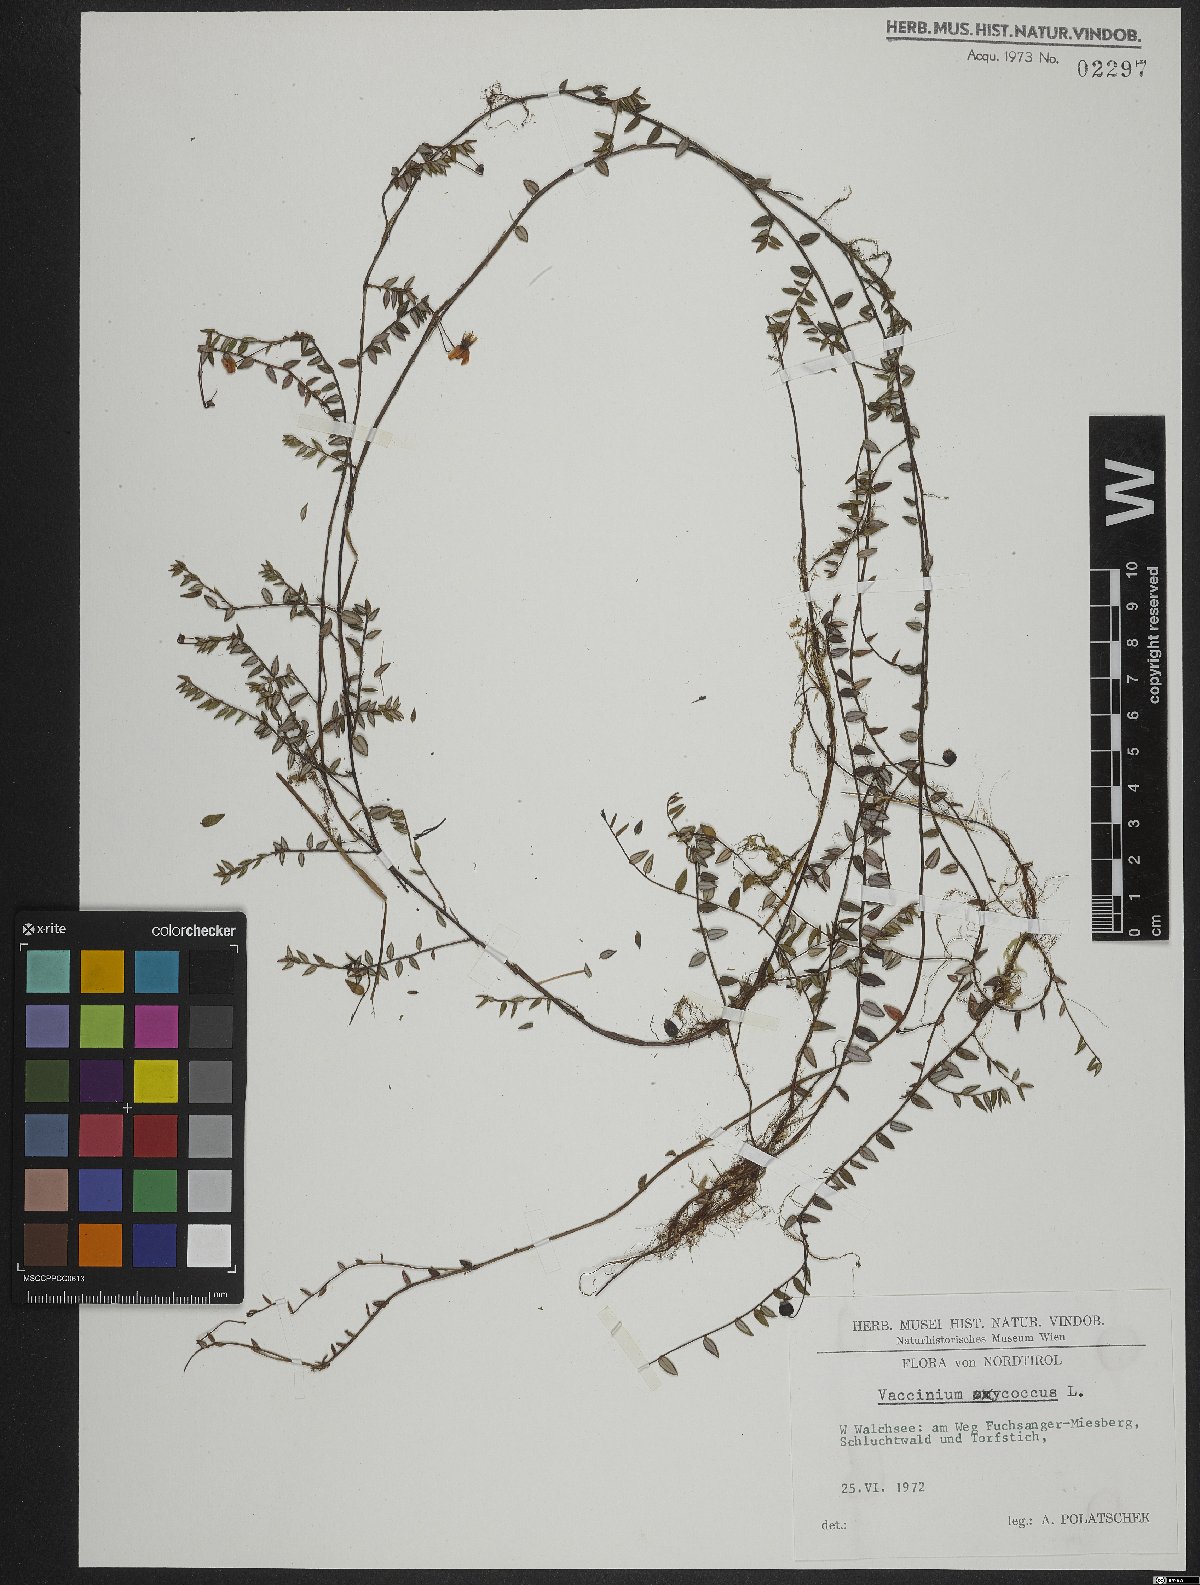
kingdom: Plantae
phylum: Tracheophyta
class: Magnoliopsida
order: Ericales
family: Ericaceae
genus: Vaccinium
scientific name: Vaccinium oxycoccos
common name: Cranberry
